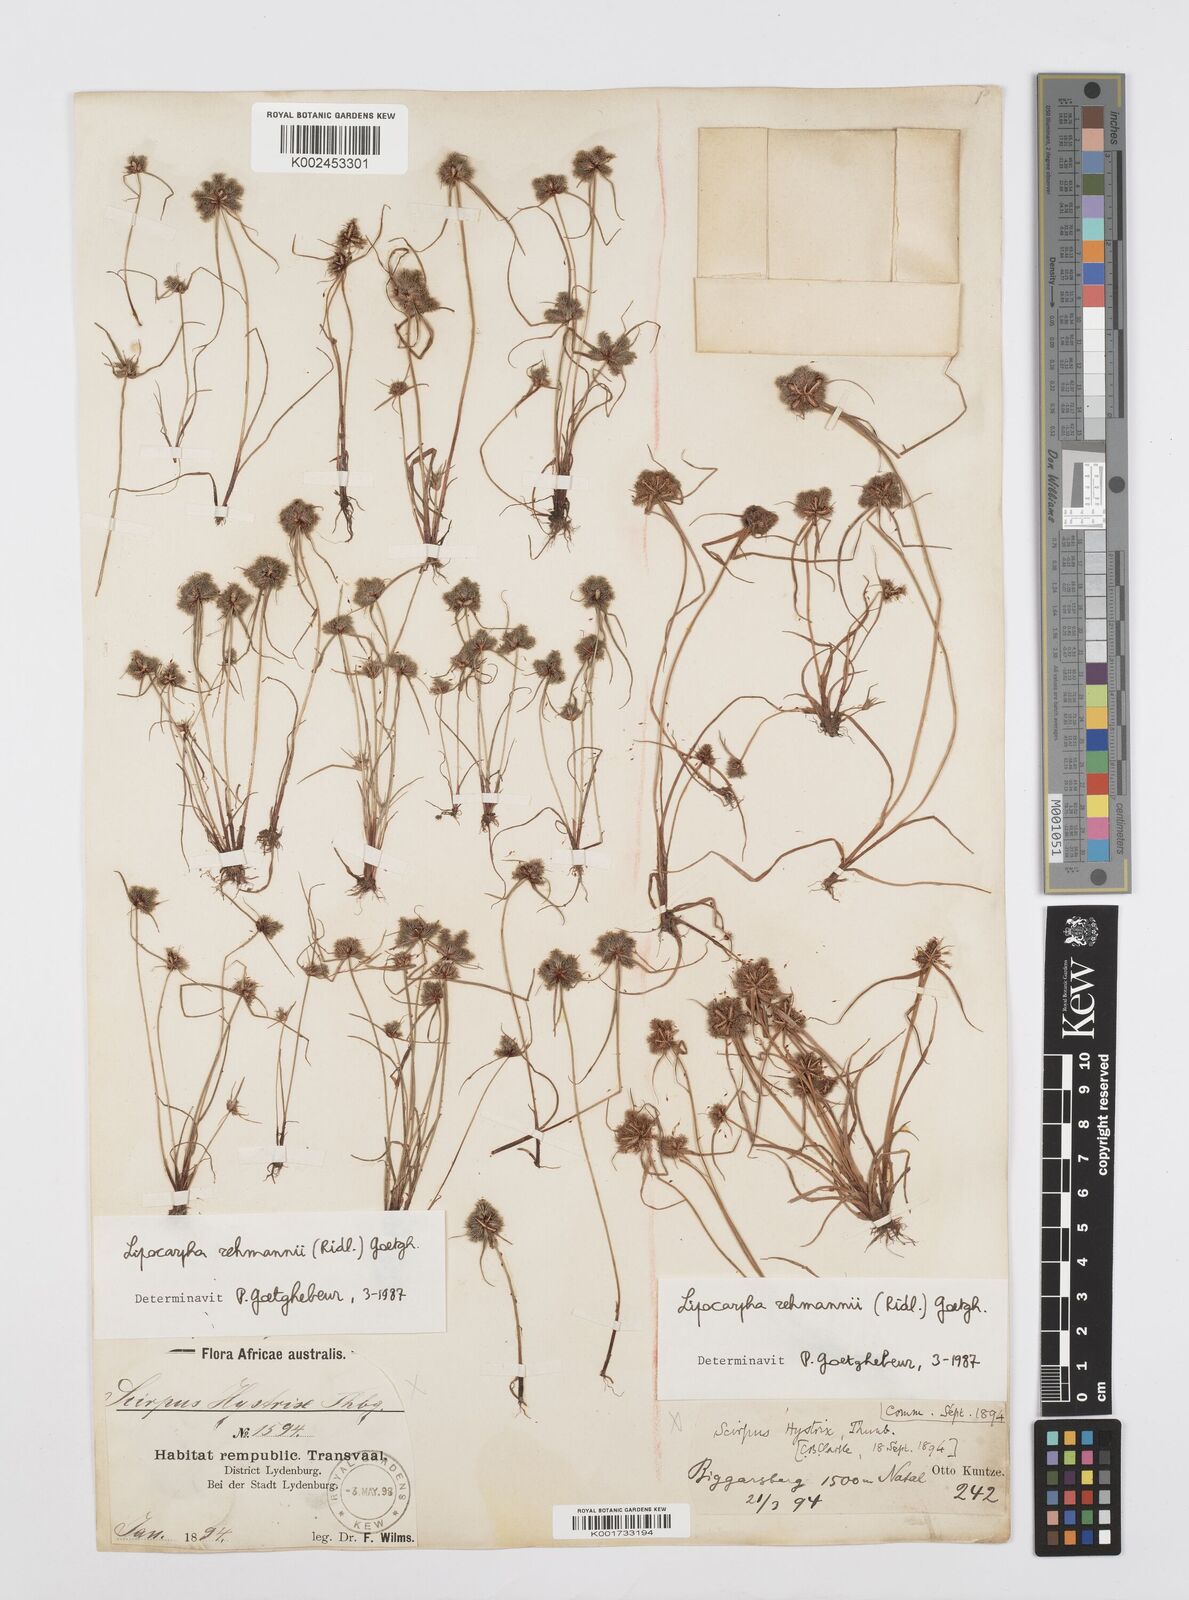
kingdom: Plantae
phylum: Tracheophyta
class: Liliopsida
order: Poales
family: Cyperaceae
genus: Cyperus
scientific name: Cyperus sanguinolentus
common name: Purpleglume flatsedge
